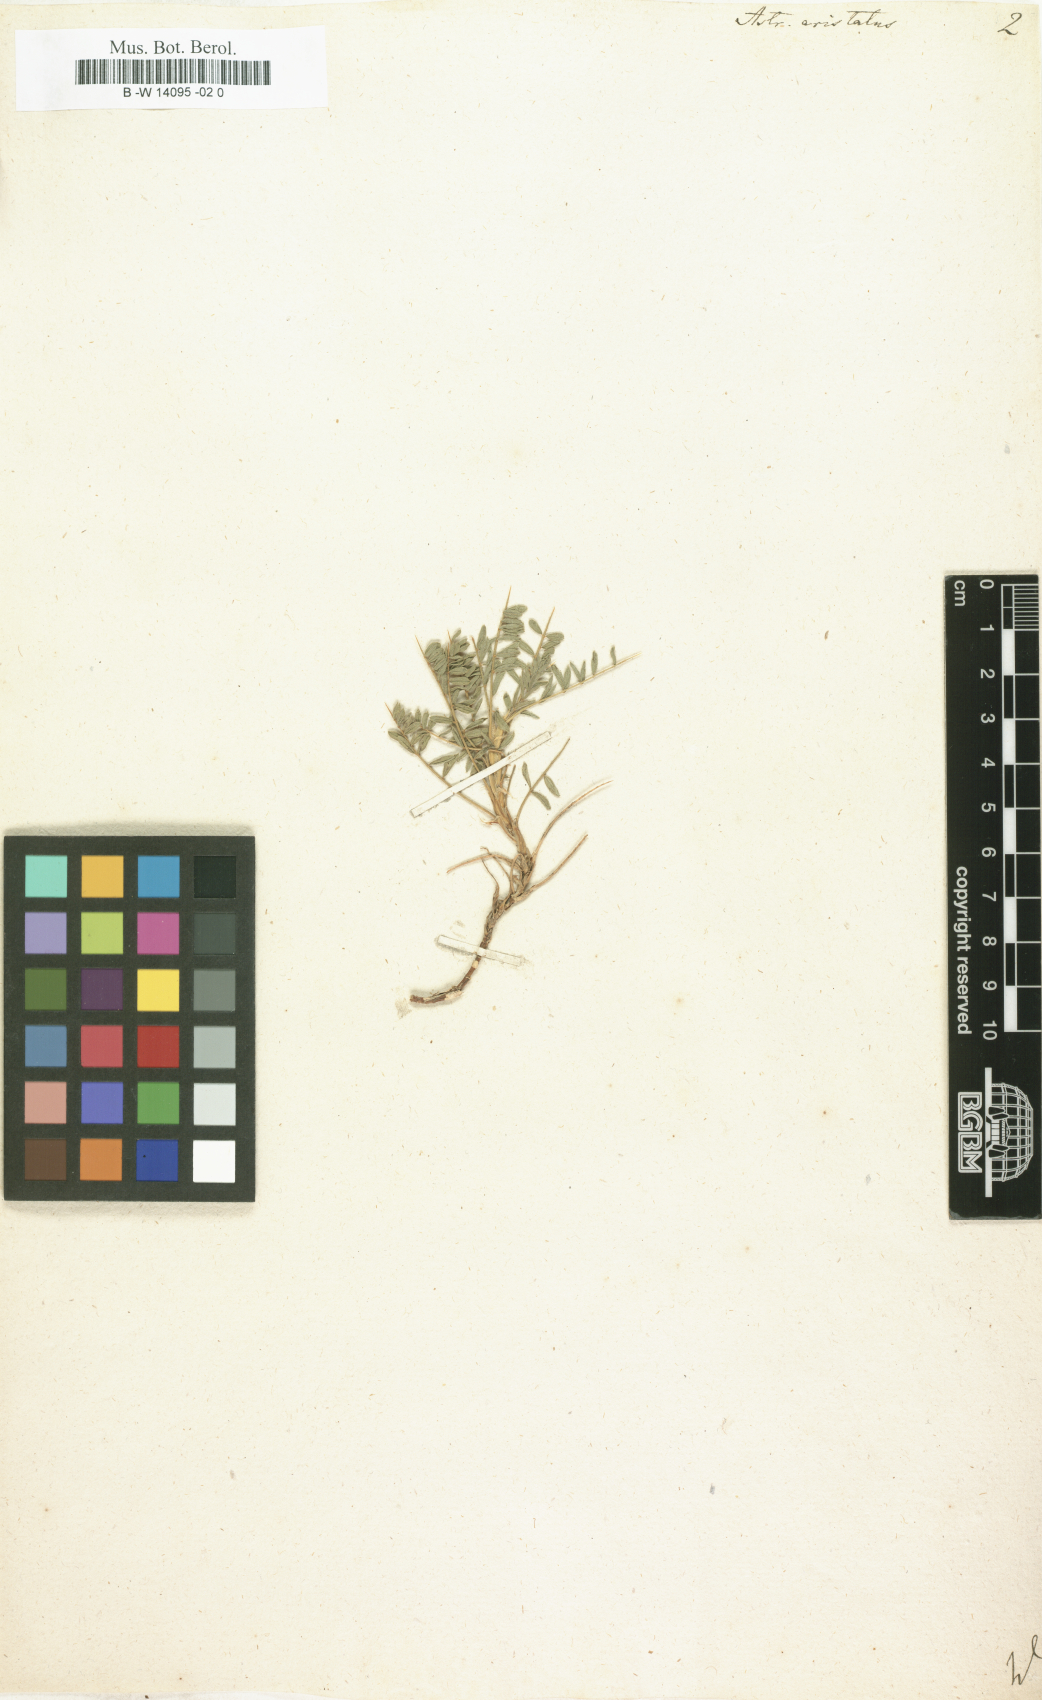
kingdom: Plantae
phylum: Tracheophyta
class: Magnoliopsida
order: Fabales
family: Fabaceae
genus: Astragalus
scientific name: Astragalus
